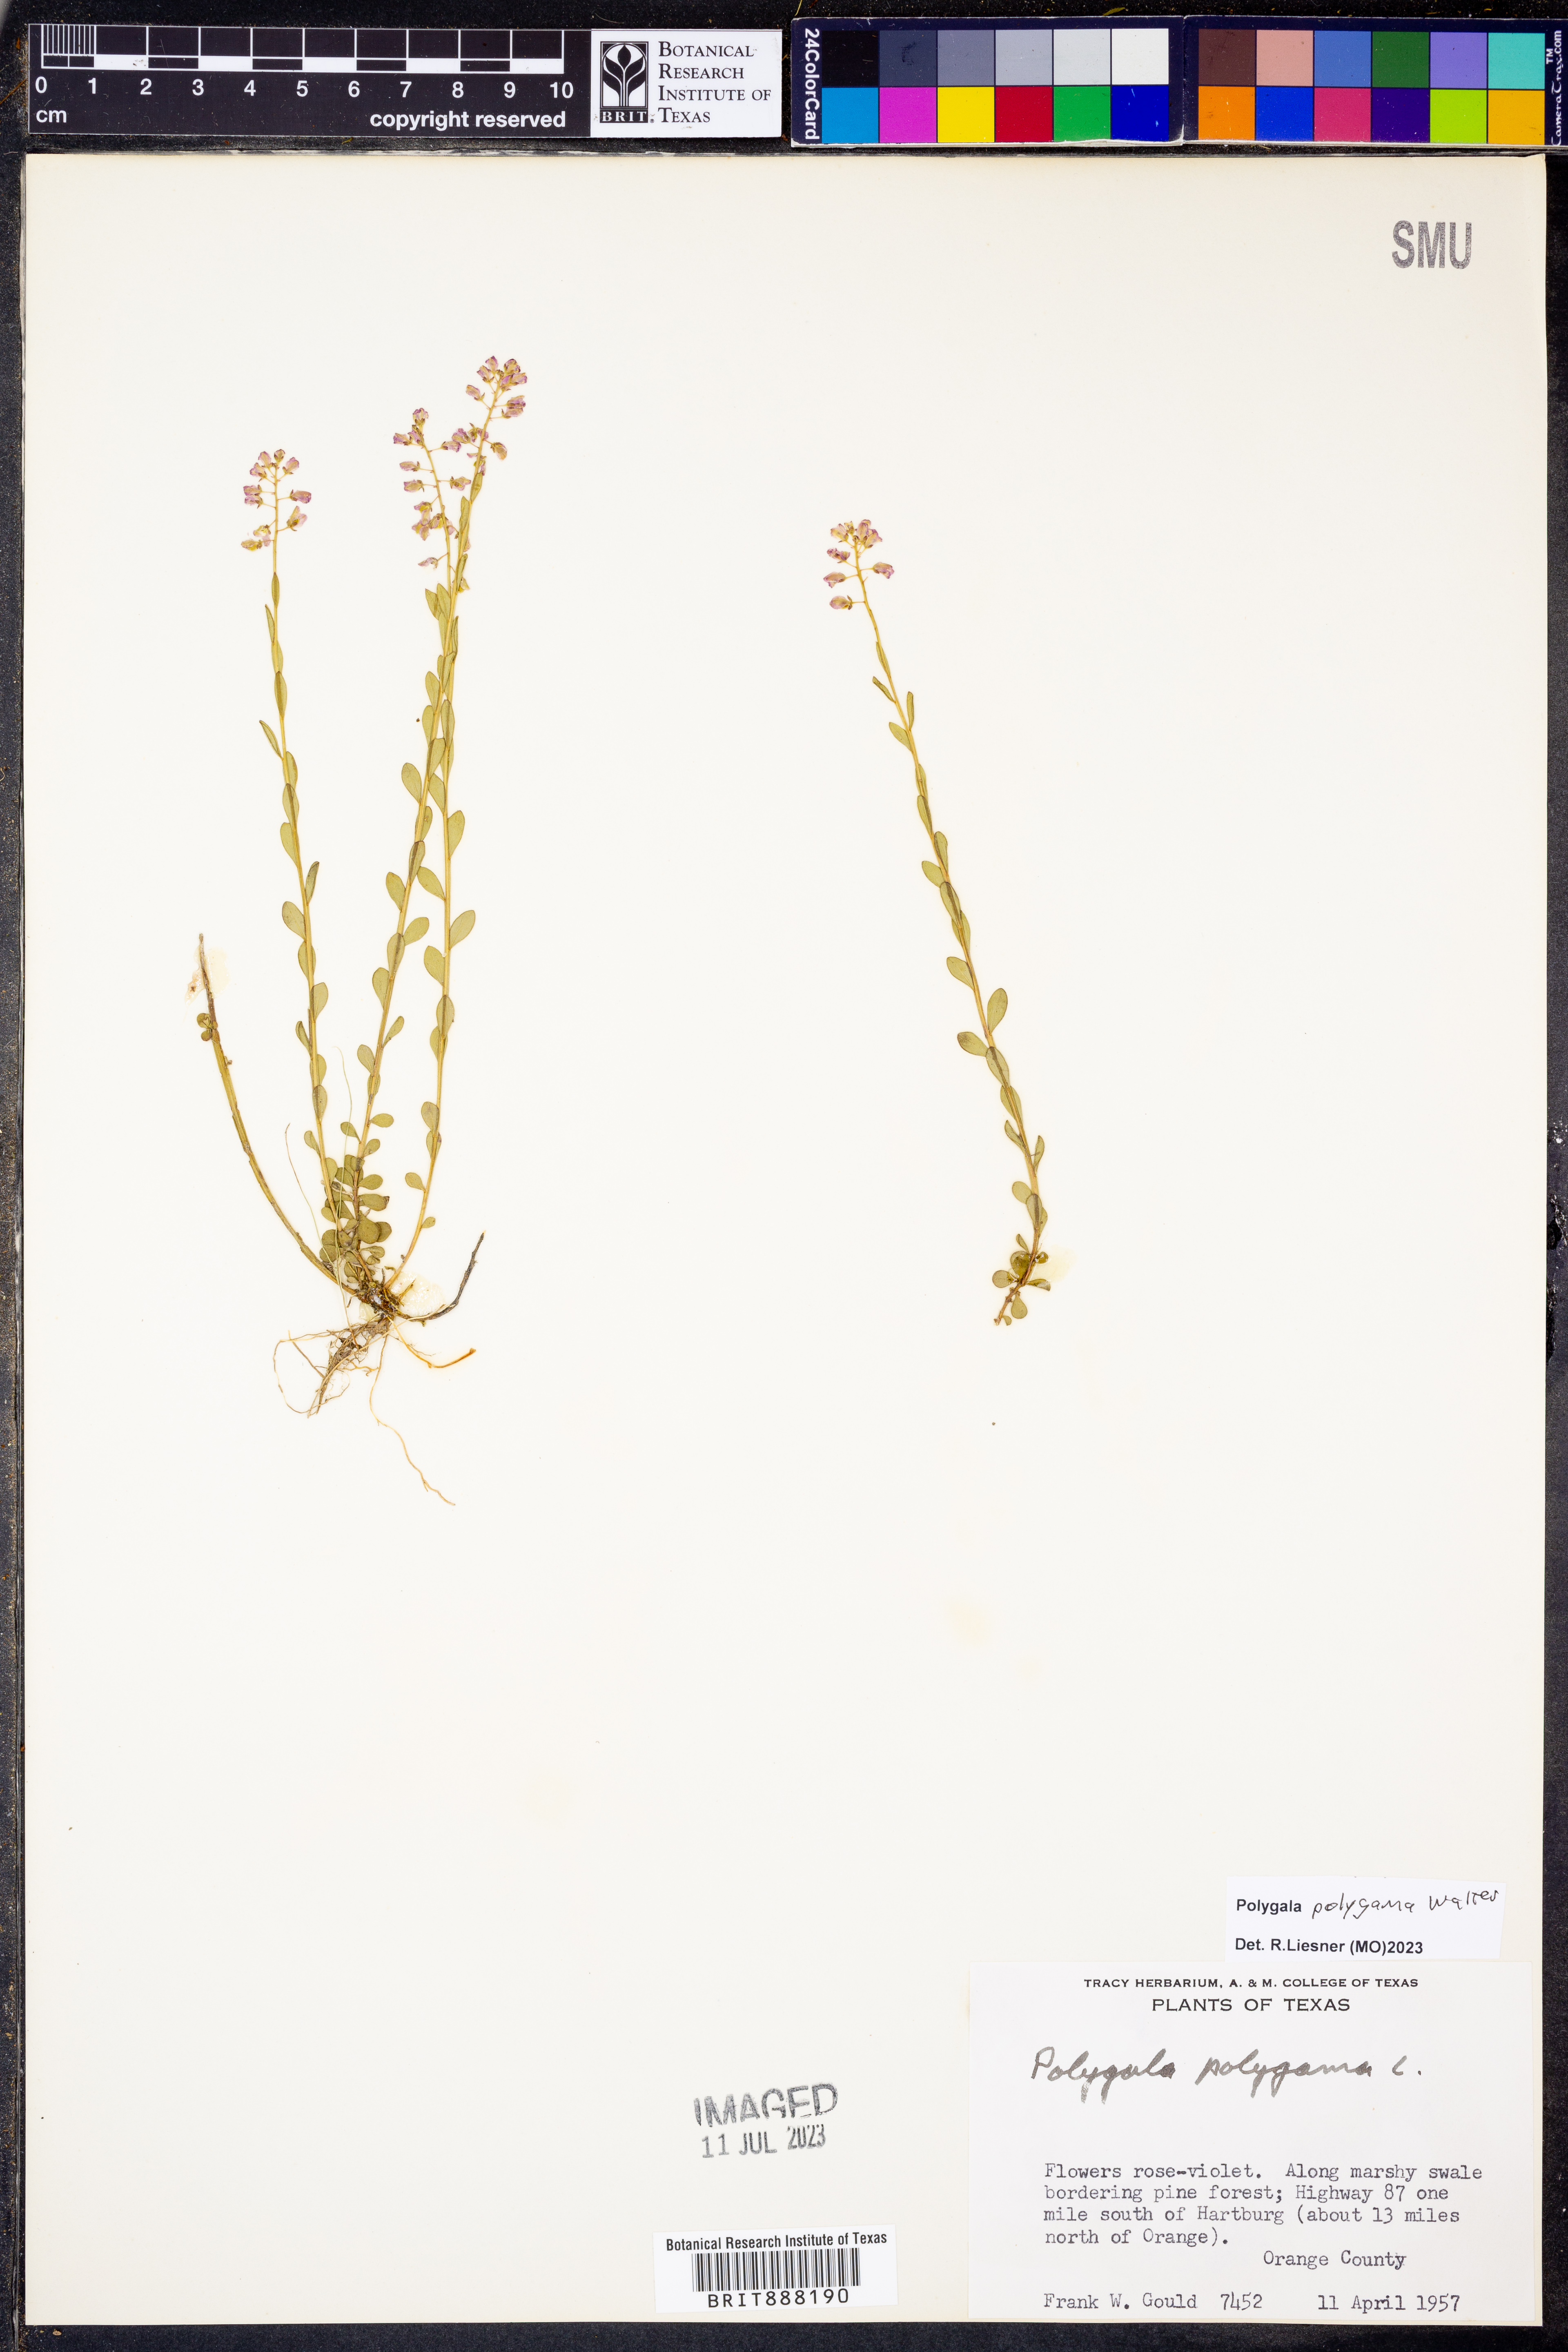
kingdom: Plantae
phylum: Tracheophyta
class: Magnoliopsida
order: Fabales
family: Polygalaceae
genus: Polygala
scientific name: Polygala polygama
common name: Bitter milkwort
